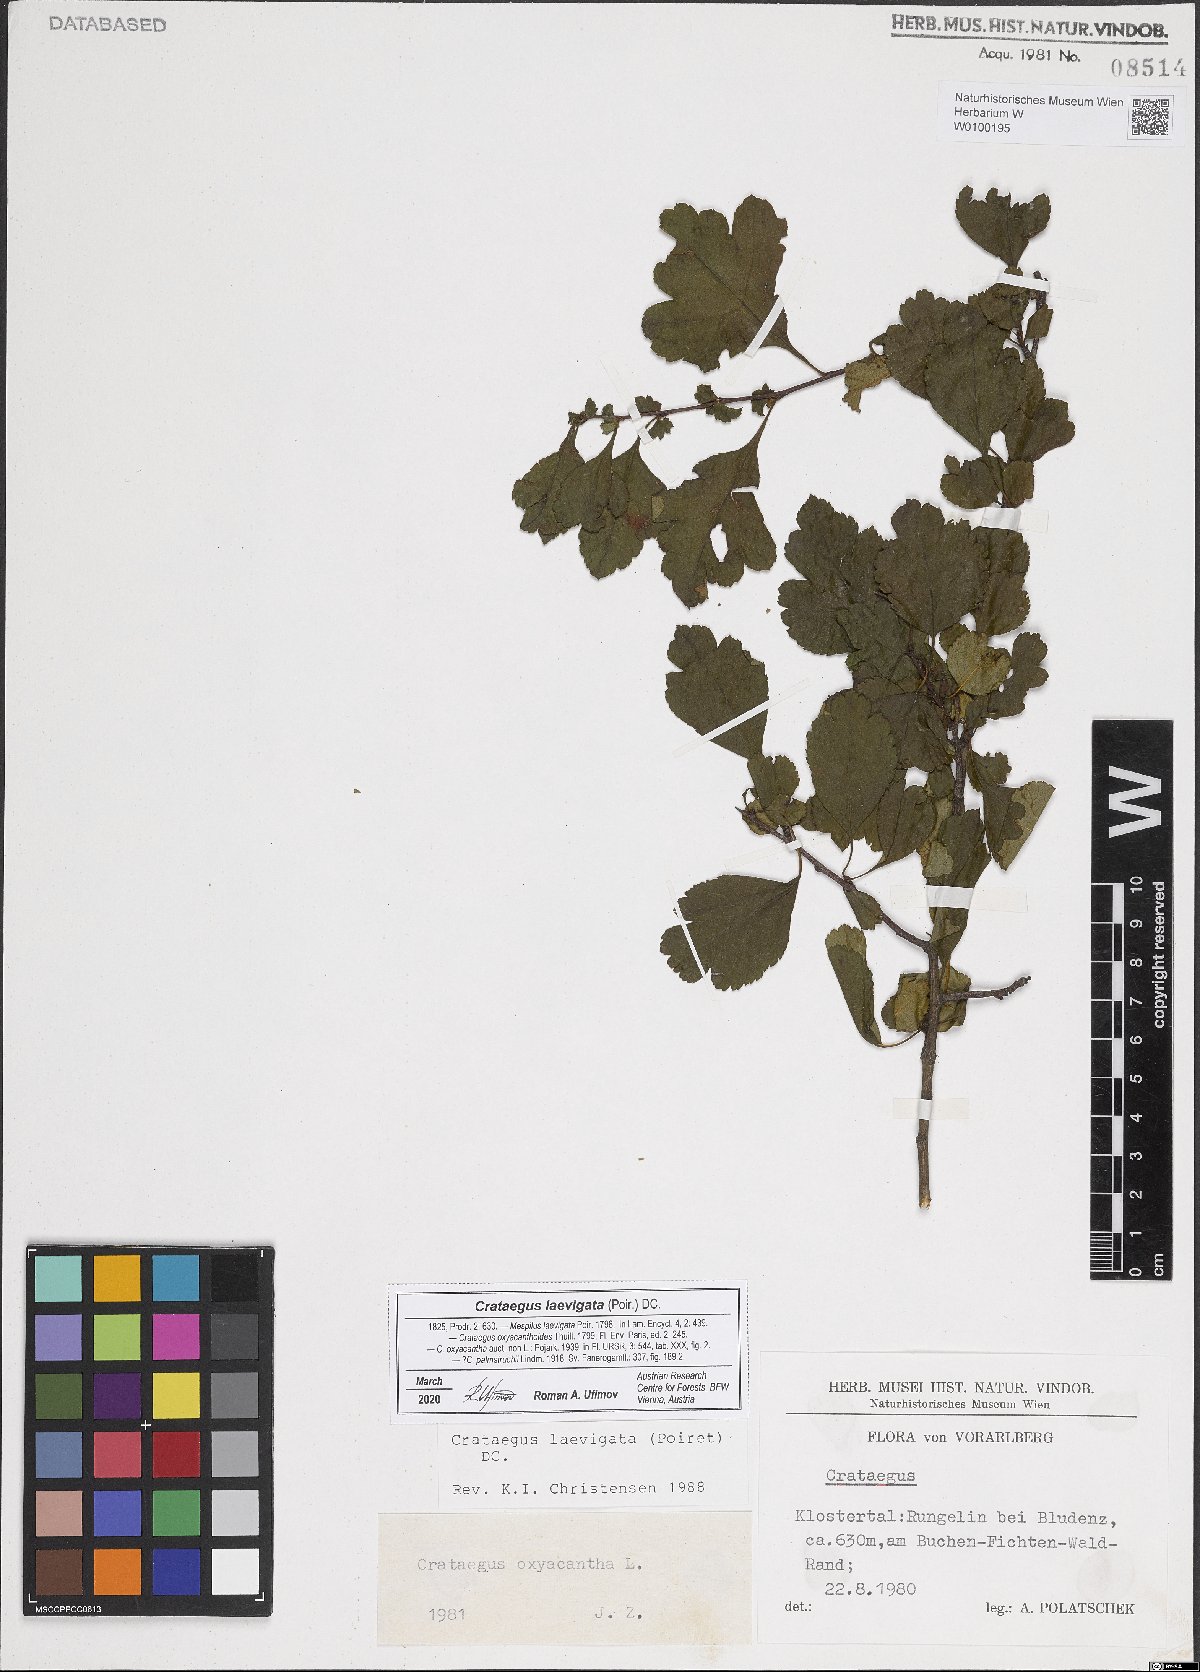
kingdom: Plantae
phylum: Tracheophyta
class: Magnoliopsida
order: Rosales
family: Rosaceae
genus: Crataegus
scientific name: Crataegus laevigata
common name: Midland hawthorn
